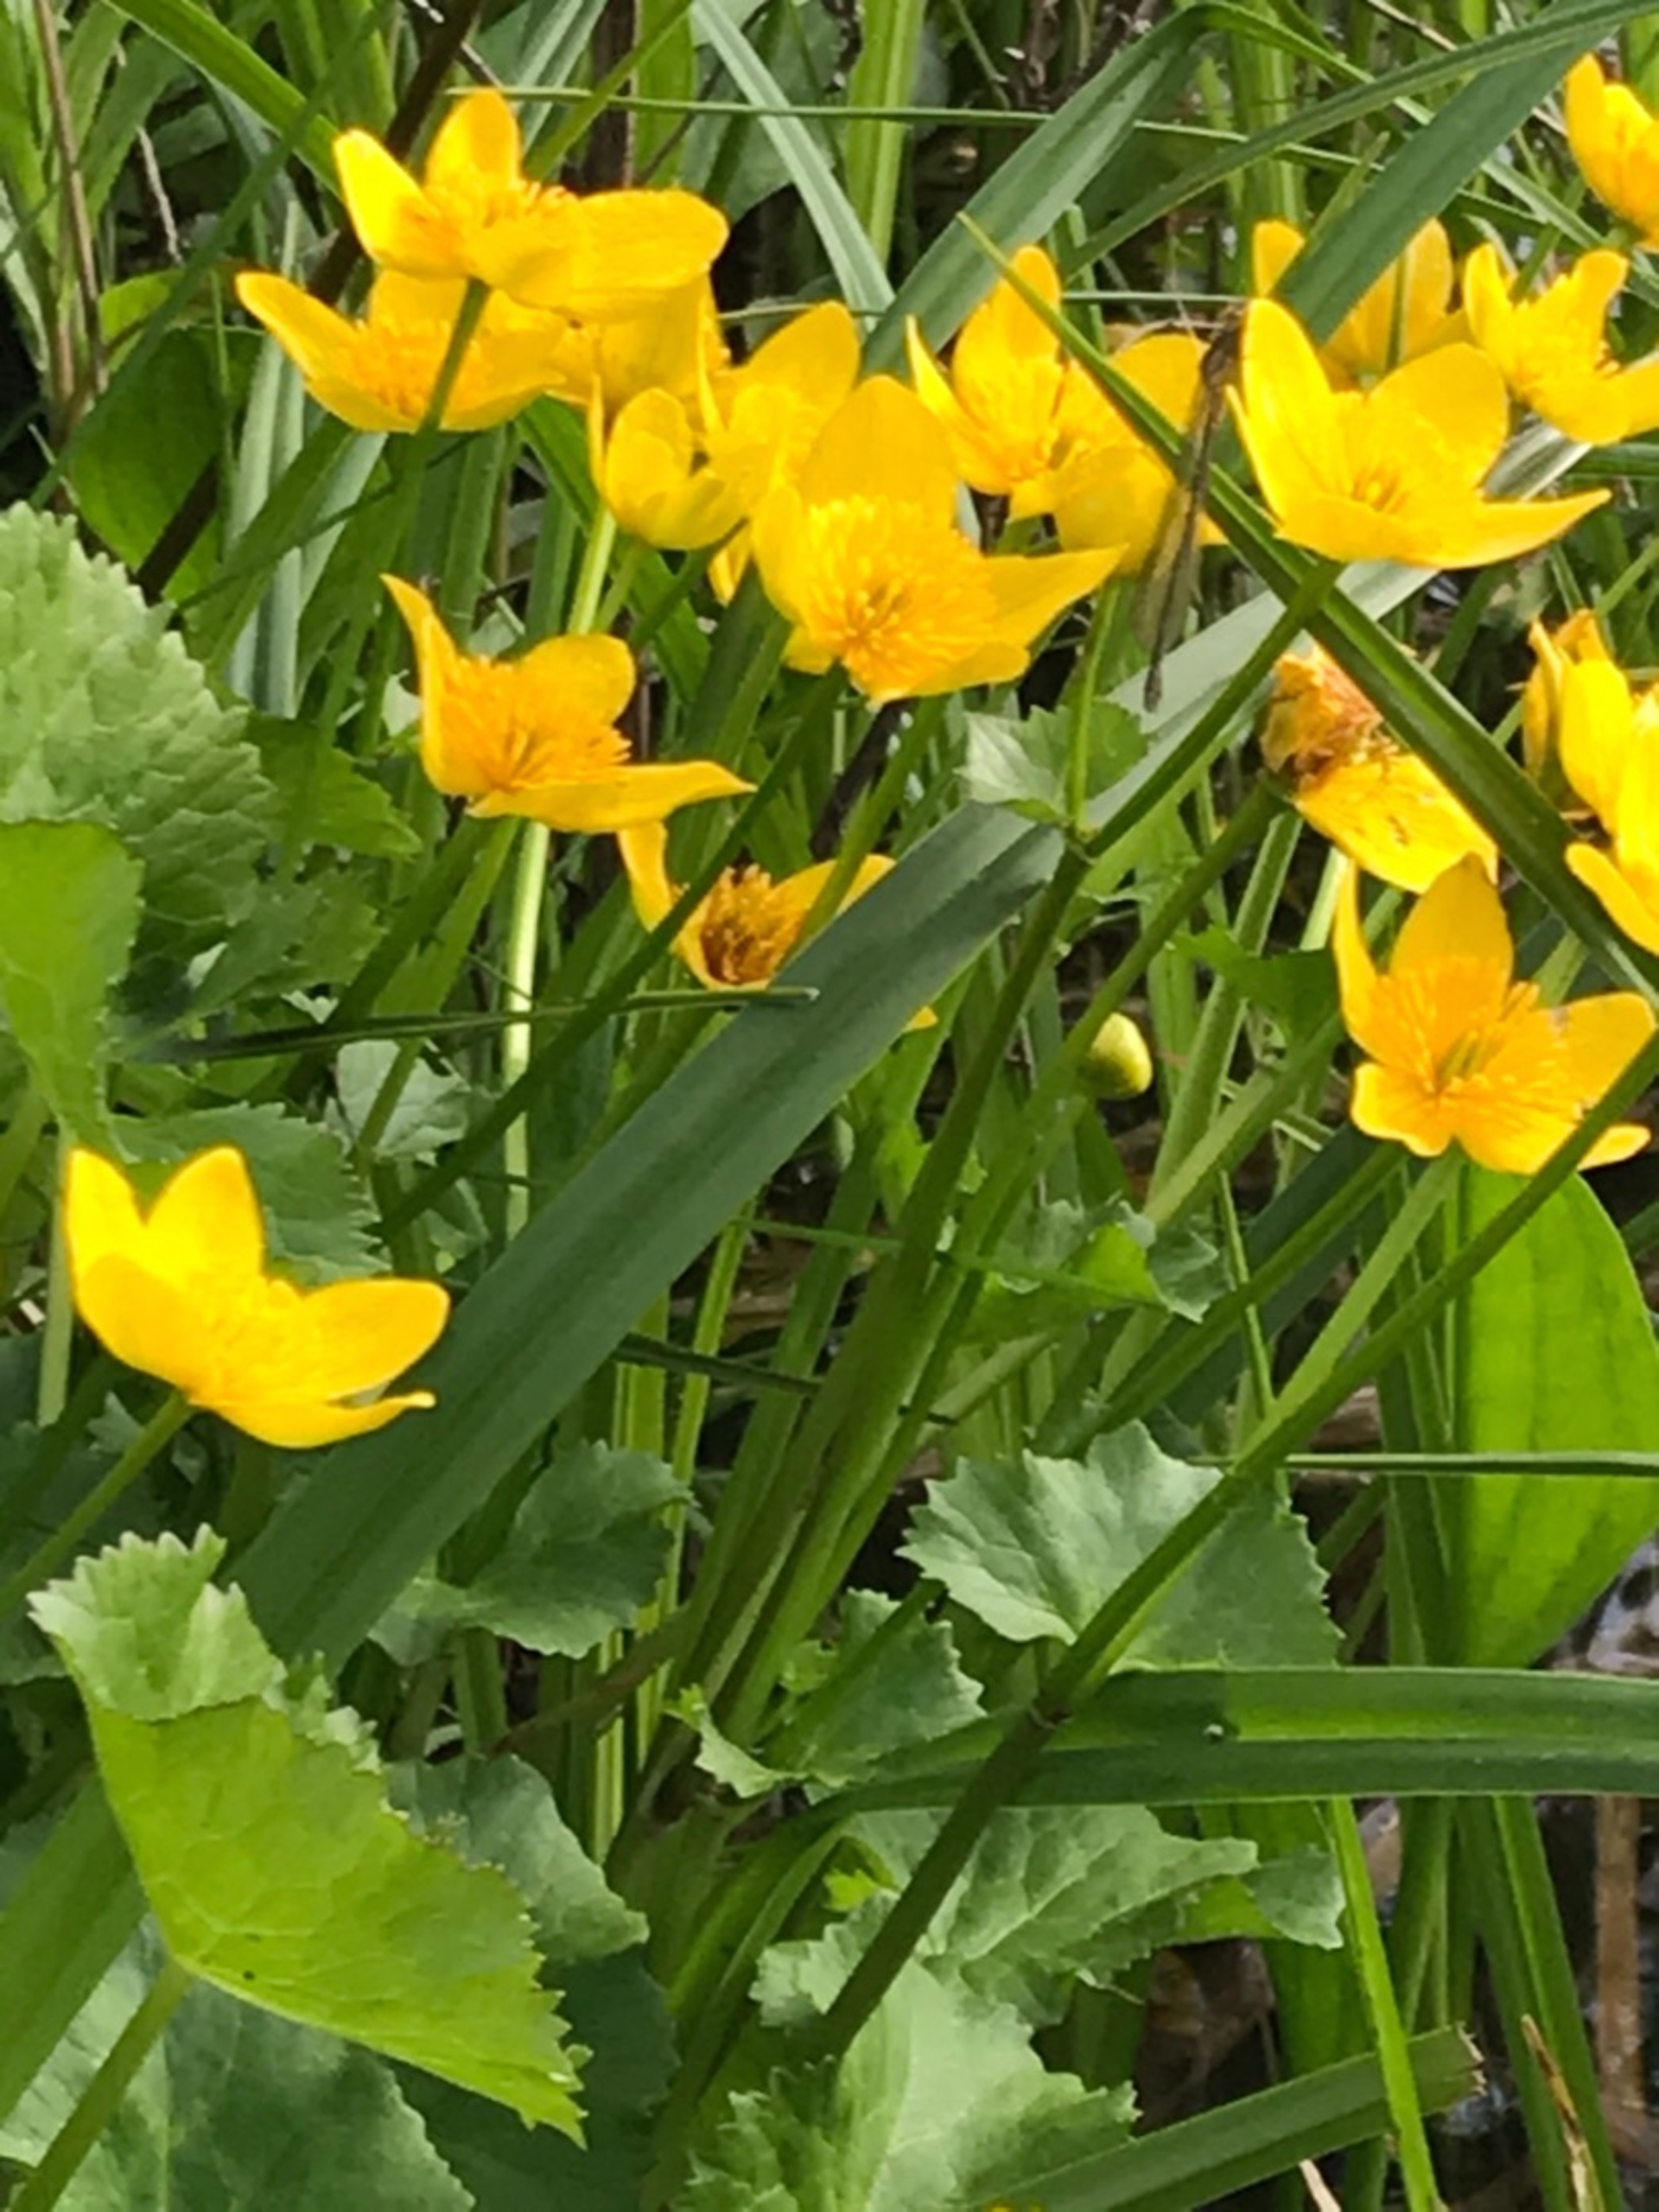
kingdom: Plantae
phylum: Tracheophyta
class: Magnoliopsida
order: Ranunculales
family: Ranunculaceae
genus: Caltha
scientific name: Caltha palustris
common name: Eng-kabbeleje
